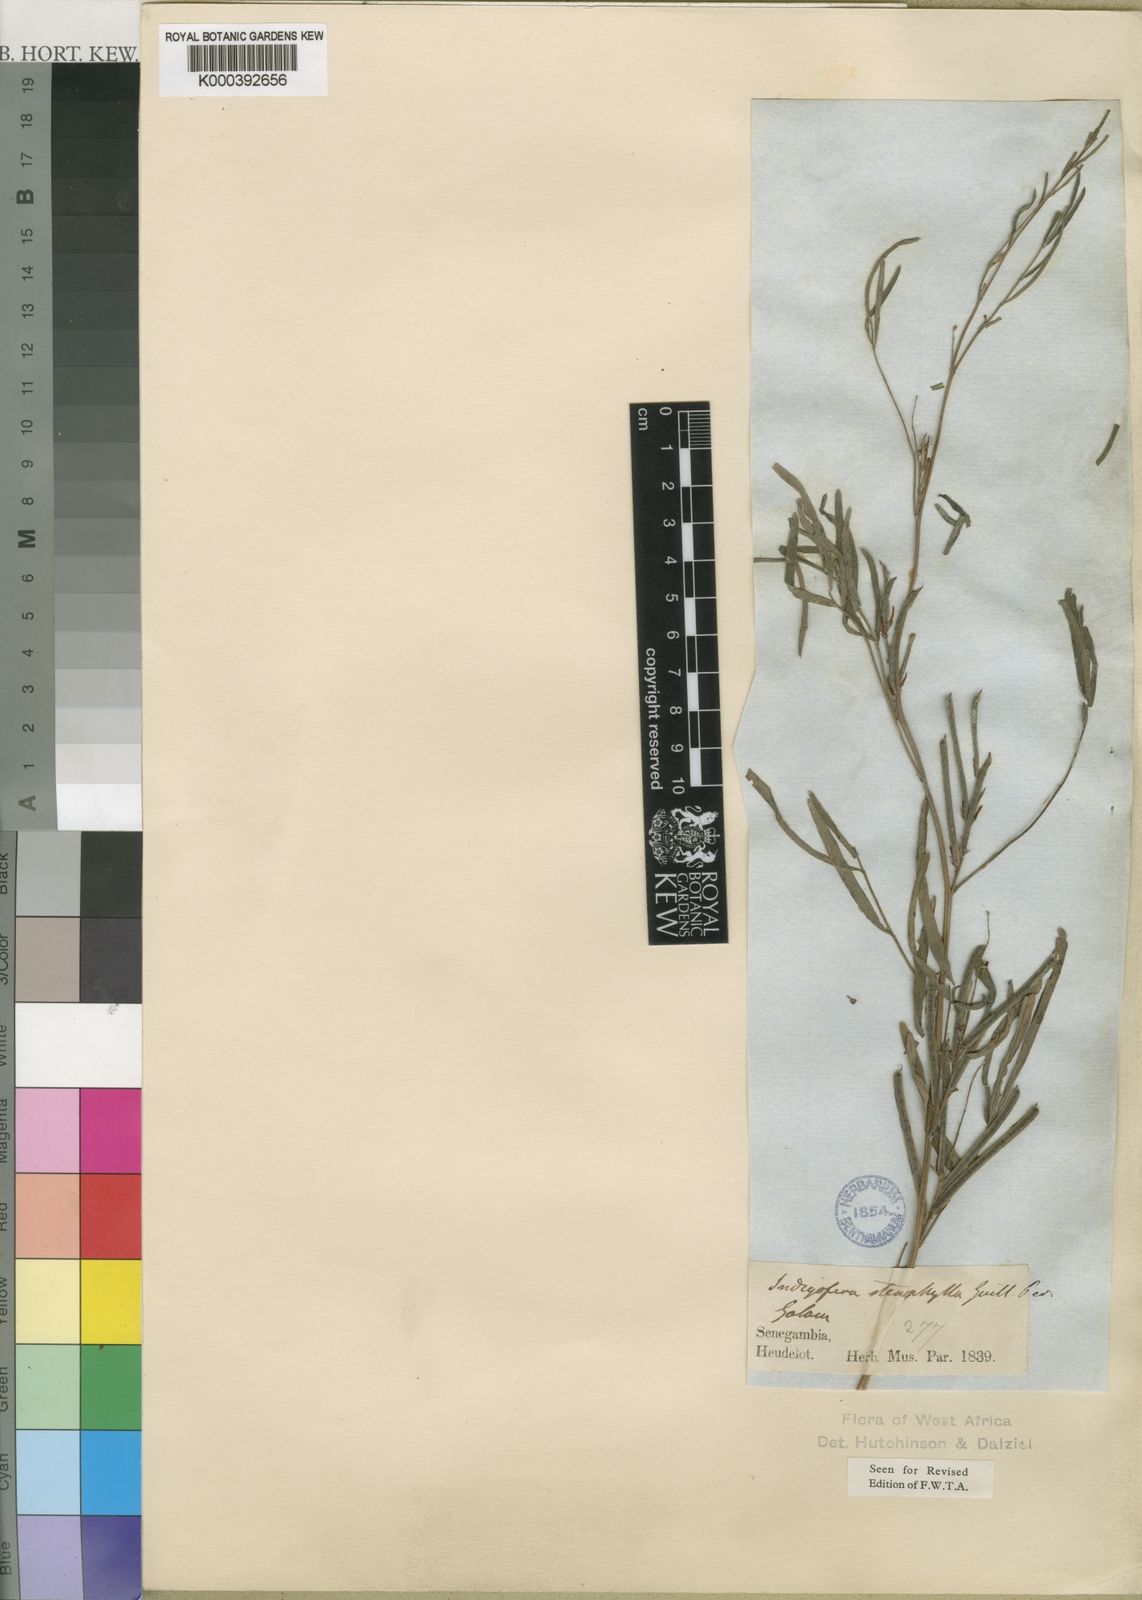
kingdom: Plantae
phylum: Tracheophyta
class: Magnoliopsida
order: Fabales
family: Fabaceae
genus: Indigofera
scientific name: Indigofera stenophylla
